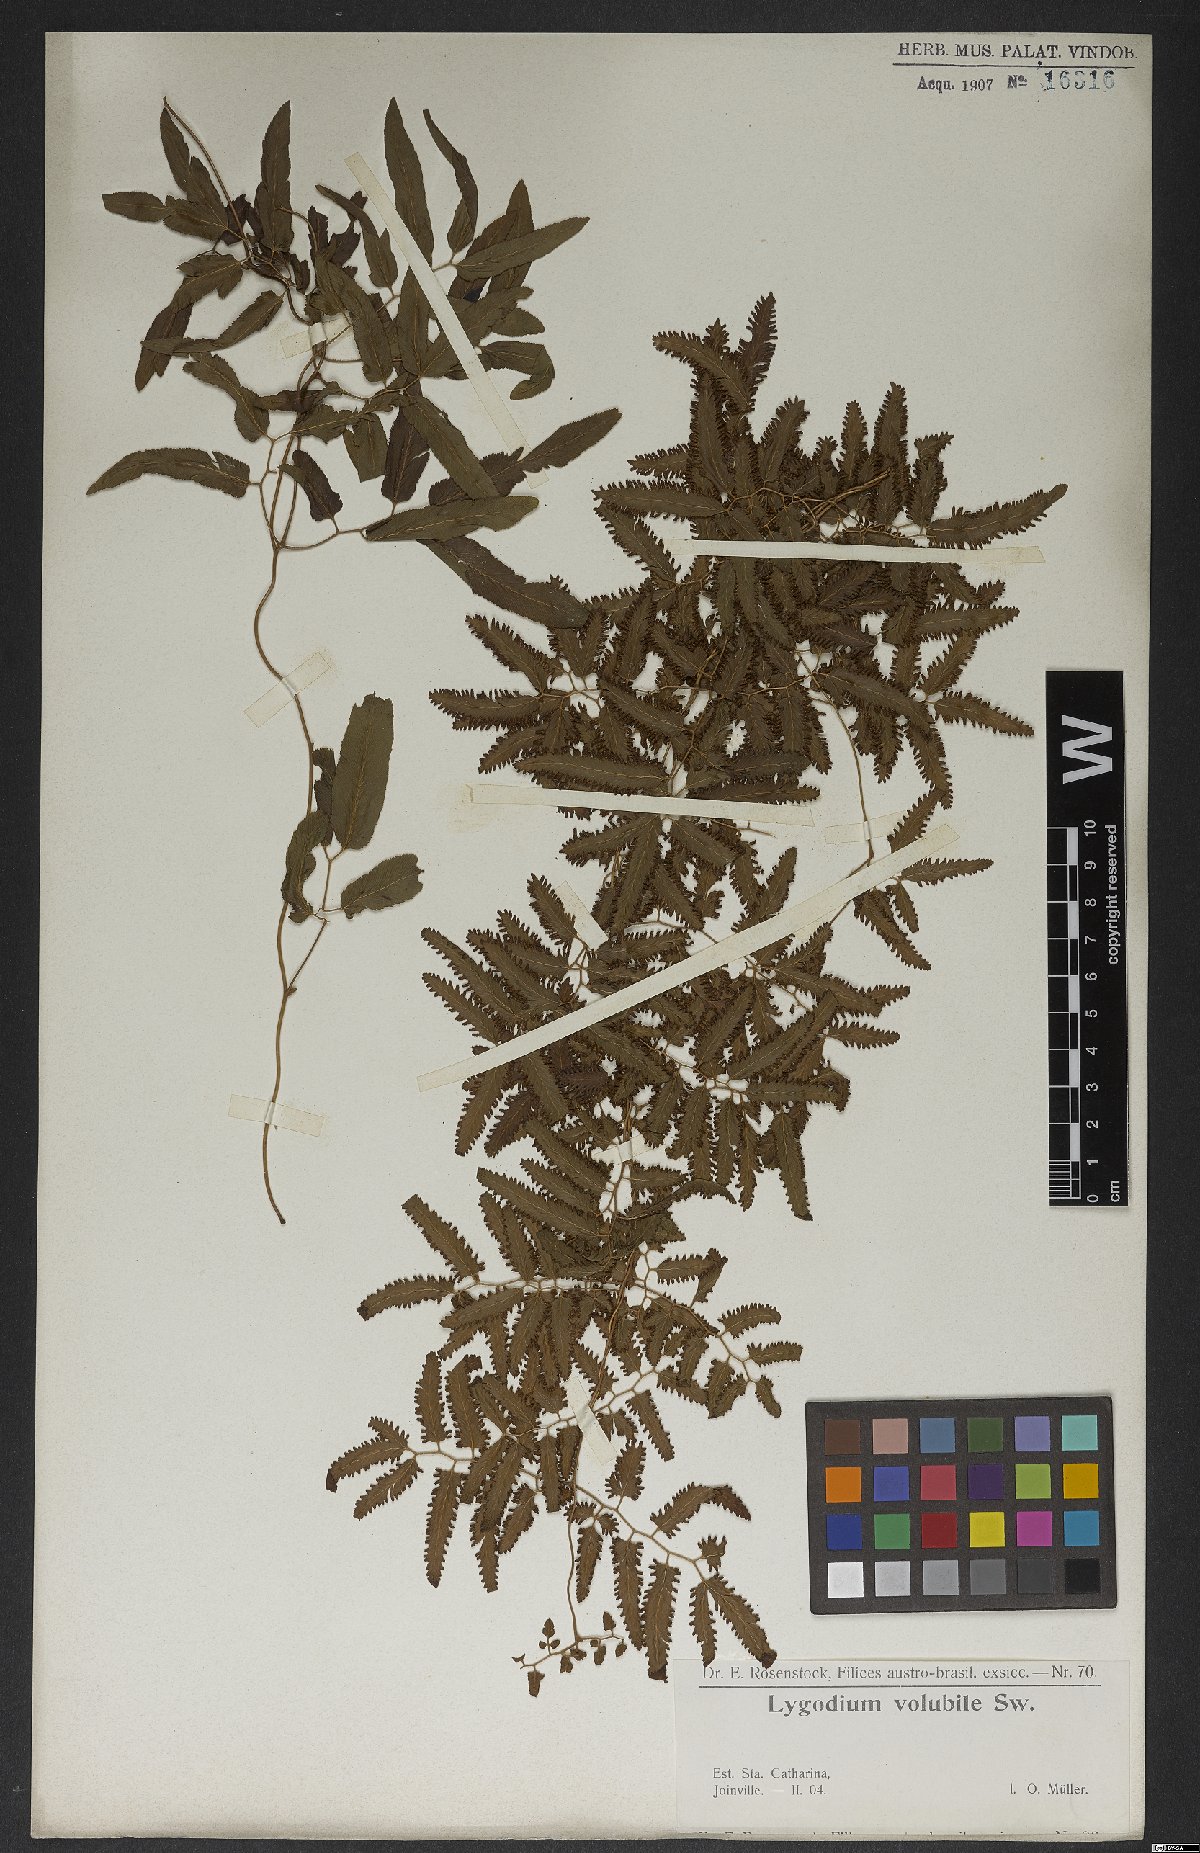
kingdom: Plantae
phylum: Tracheophyta
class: Polypodiopsida
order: Schizaeales
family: Lygodiaceae
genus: Lygodium
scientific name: Lygodium volubile
